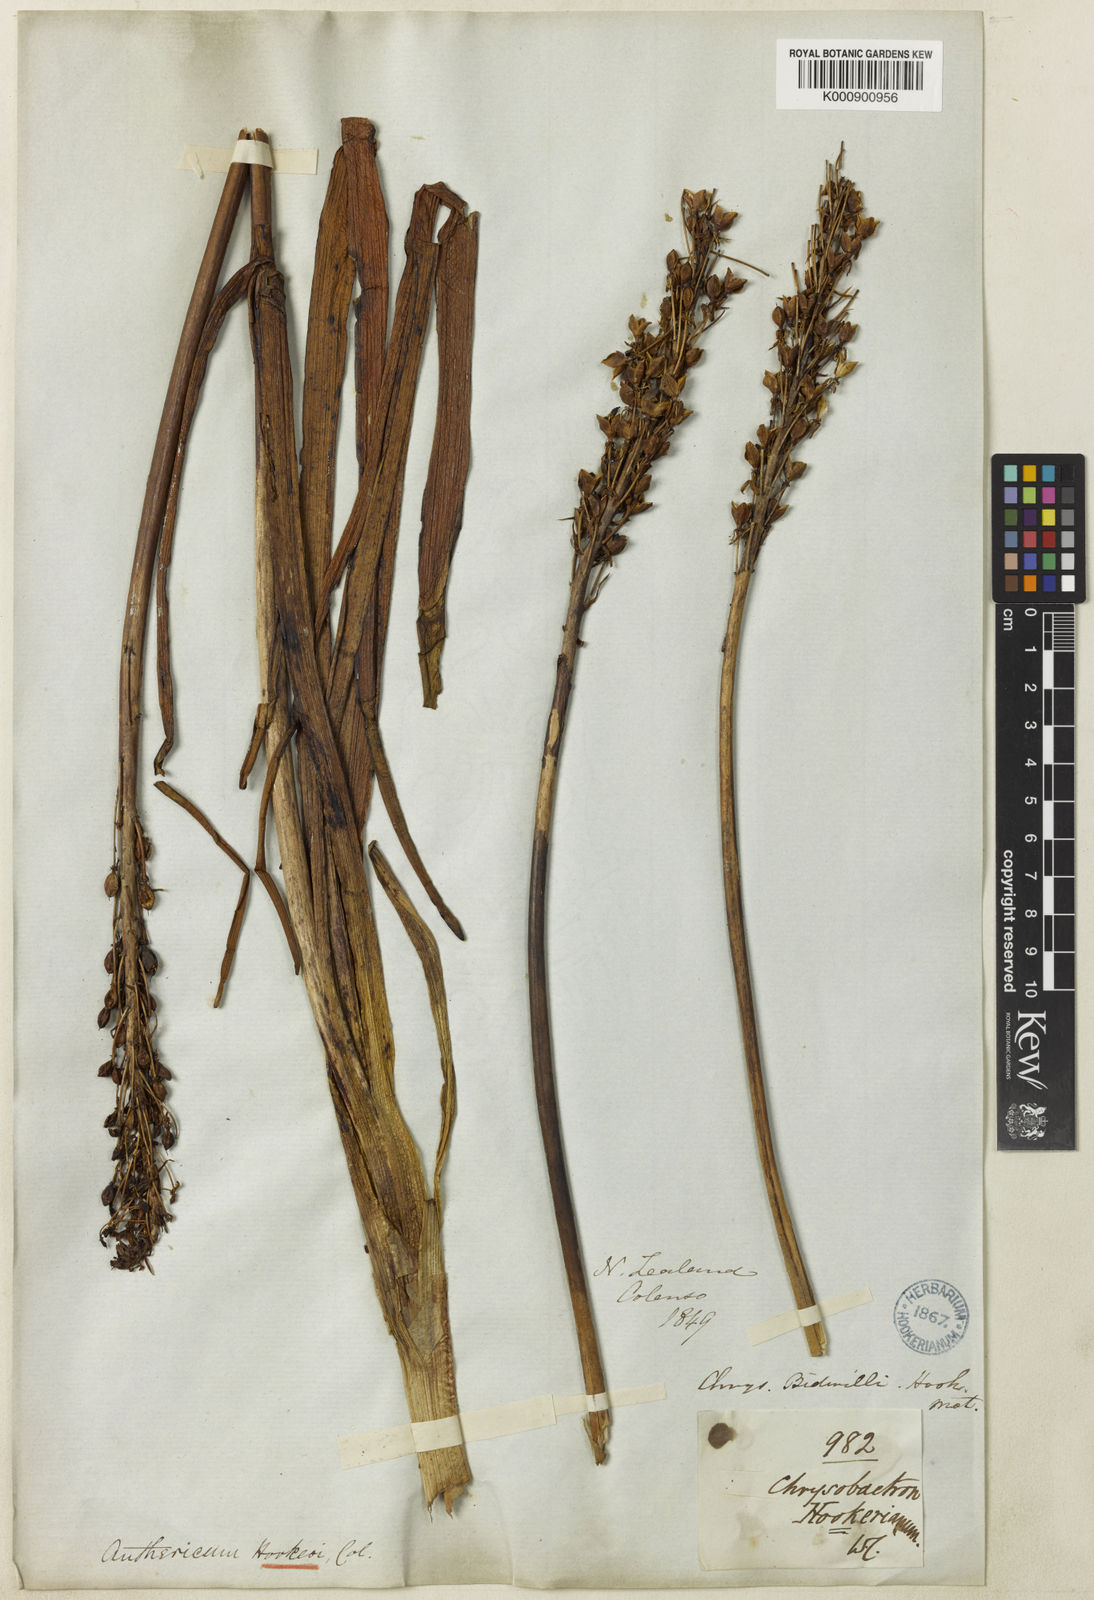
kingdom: Plantae
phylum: Tracheophyta
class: Liliopsida
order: Asparagales
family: Asphodelaceae
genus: Bulbinella
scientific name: Bulbinella
